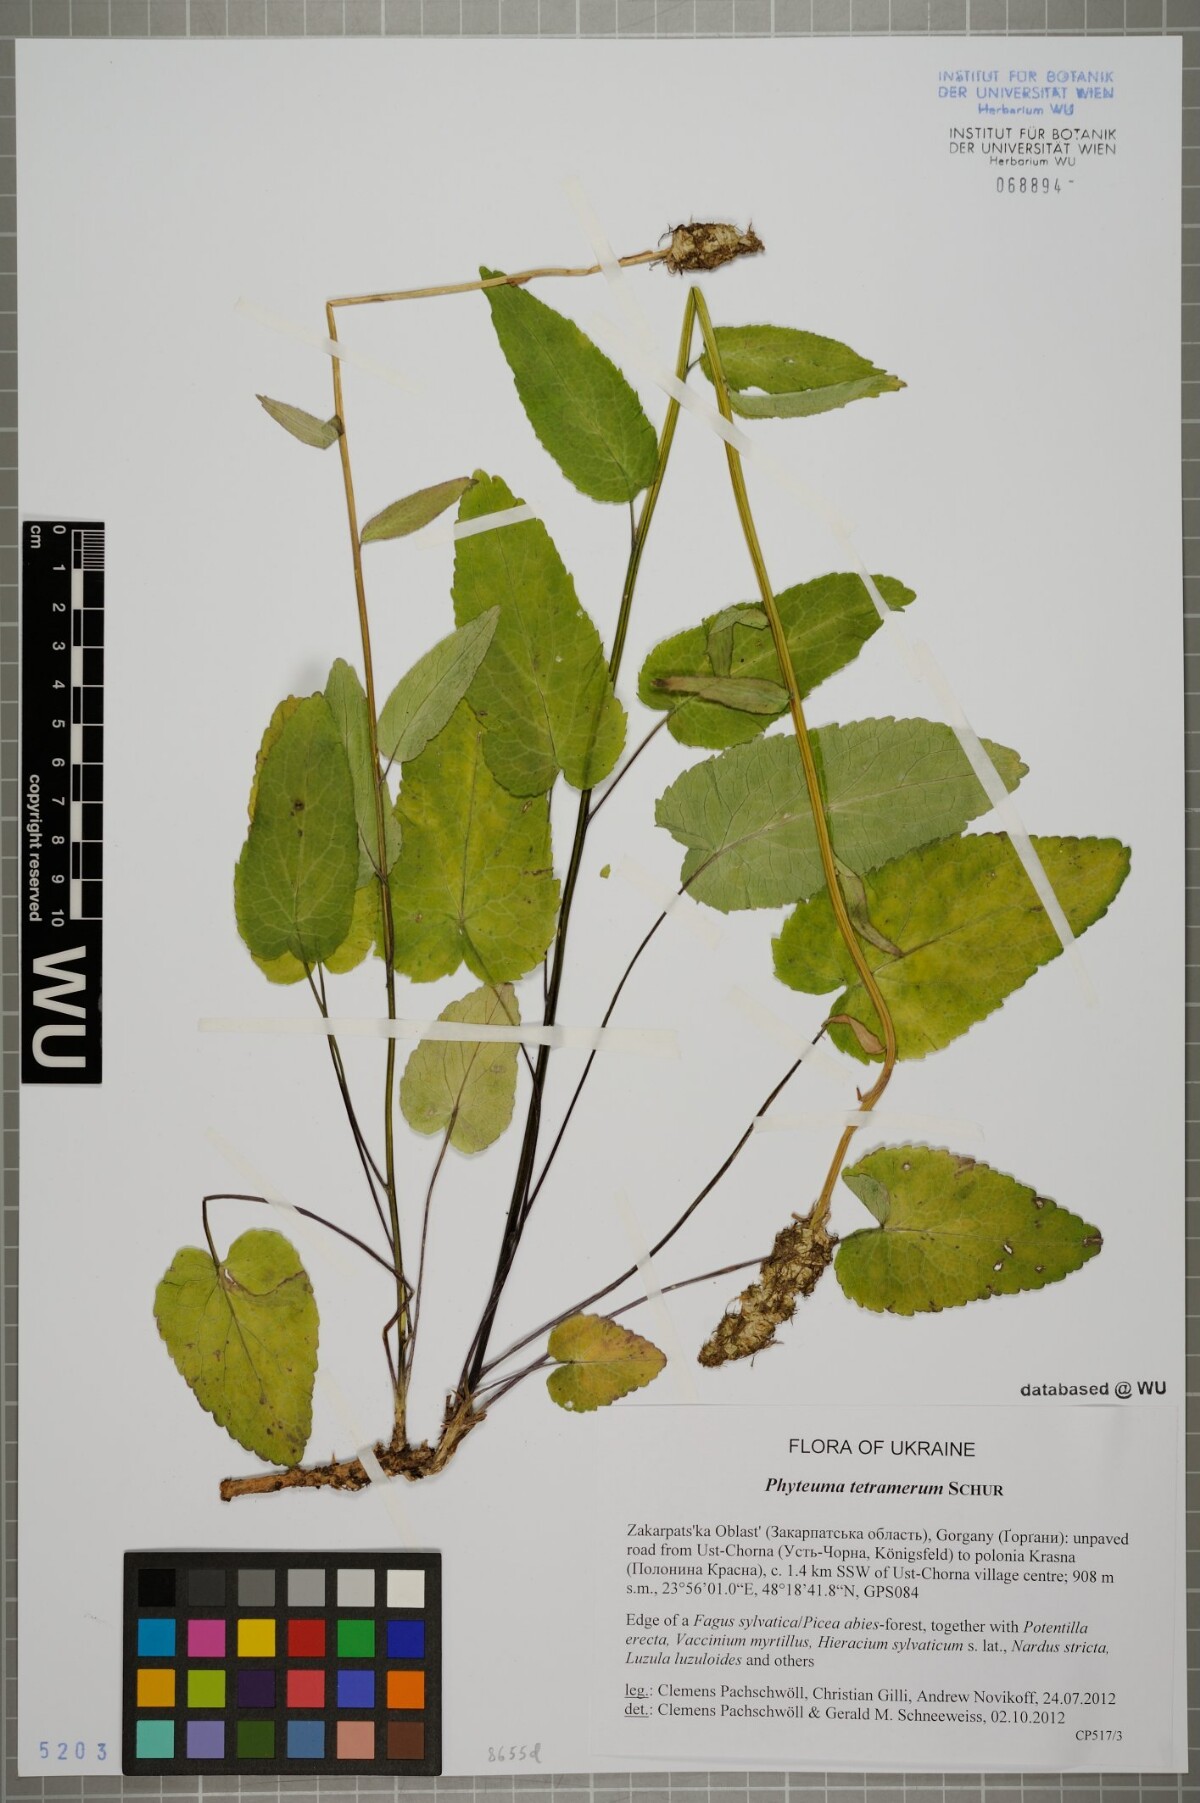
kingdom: Plantae
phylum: Tracheophyta
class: Magnoliopsida
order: Asterales
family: Campanulaceae
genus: Phyteuma
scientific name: Phyteuma tetramerum
